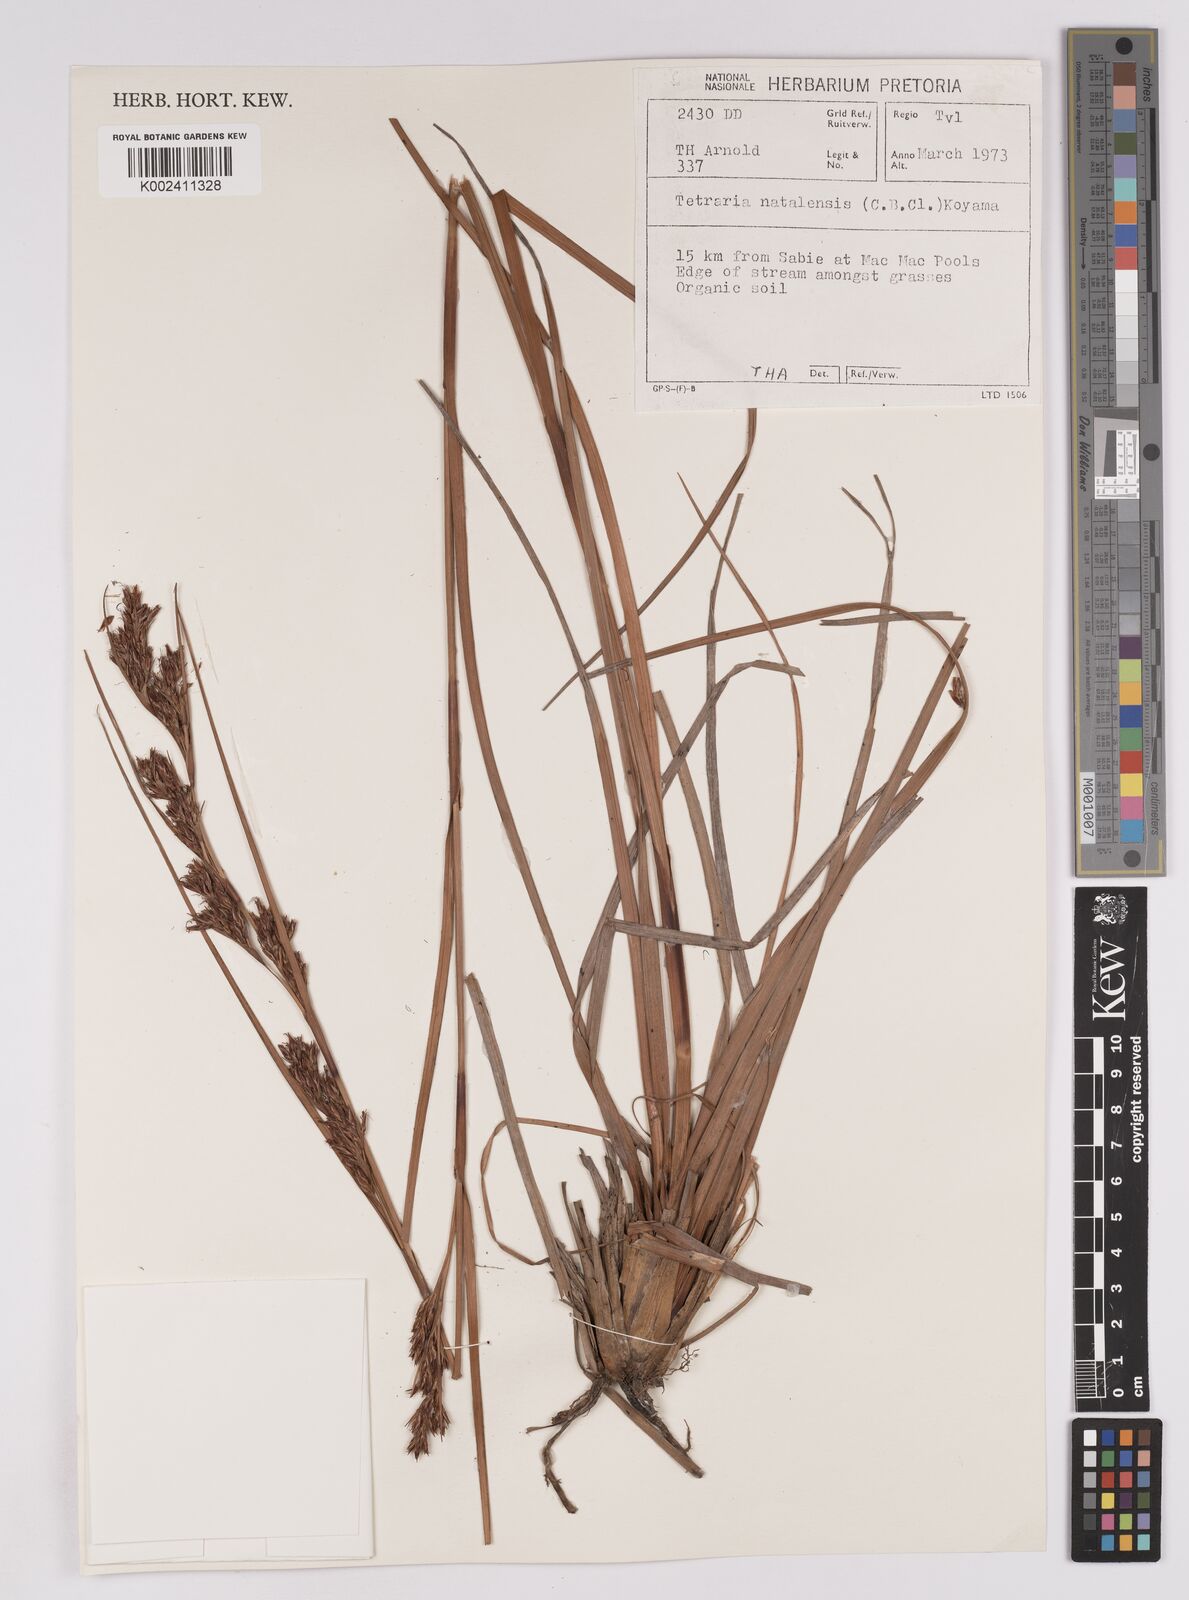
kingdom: Plantae
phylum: Tracheophyta
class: Liliopsida
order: Poales
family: Cyperaceae
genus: Costularia
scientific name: Costularia natalensis
